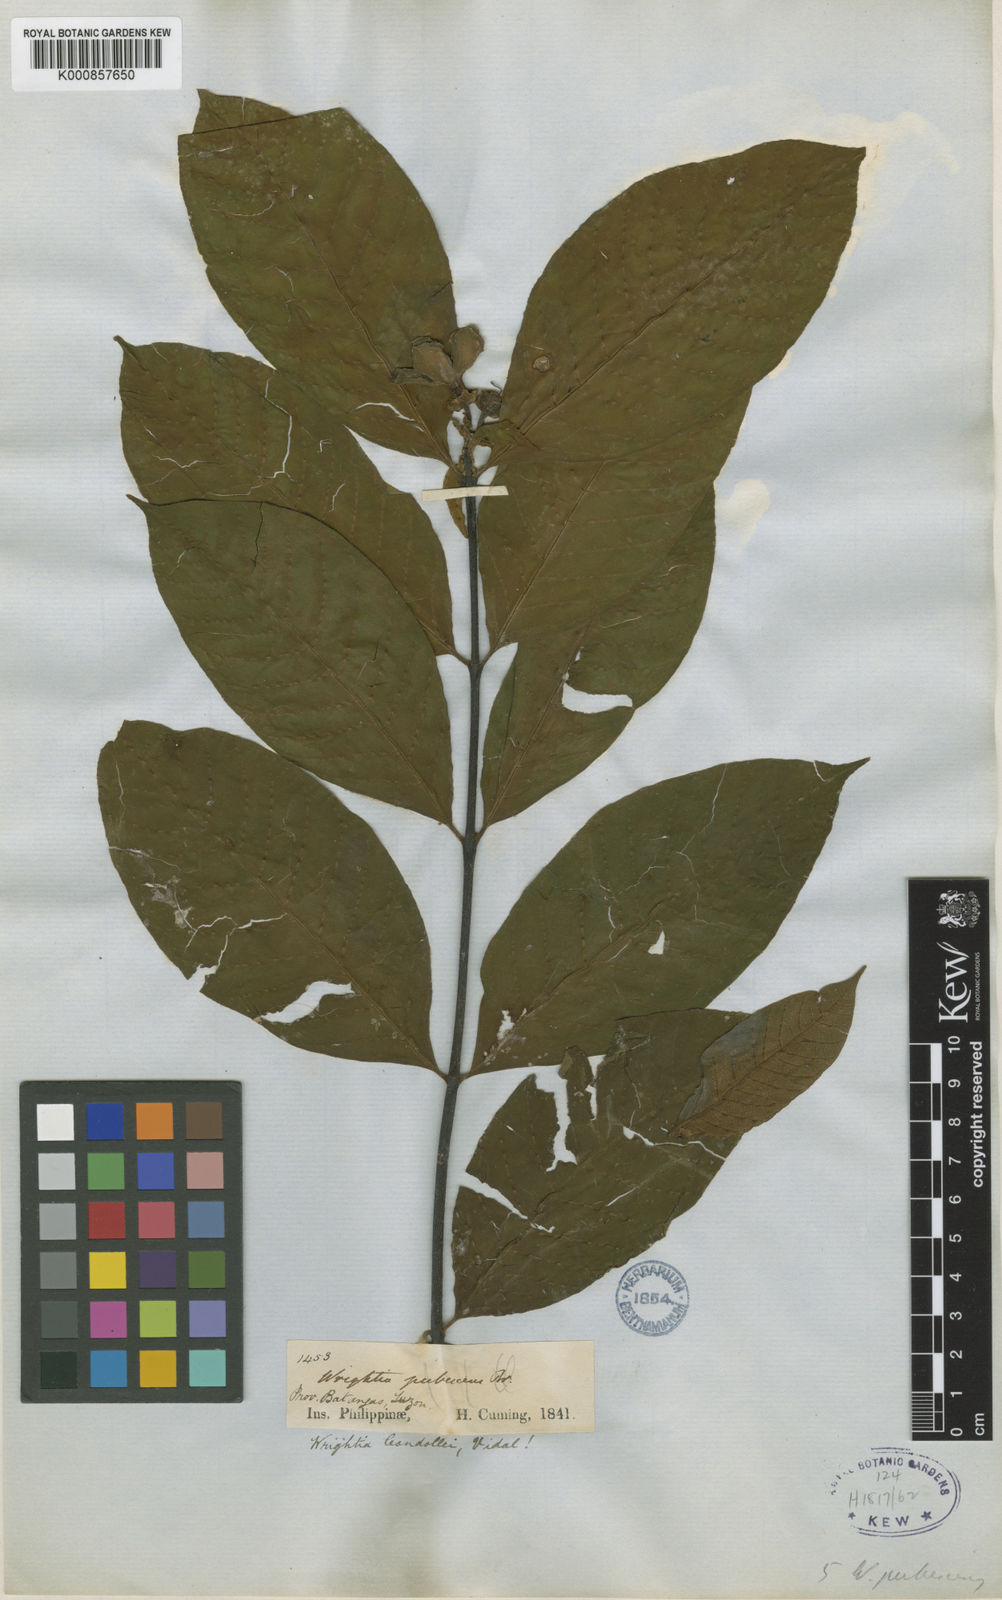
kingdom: Plantae
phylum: Tracheophyta
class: Magnoliopsida
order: Gentianales
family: Apocynaceae
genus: Wrightia
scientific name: Wrightia candollei
